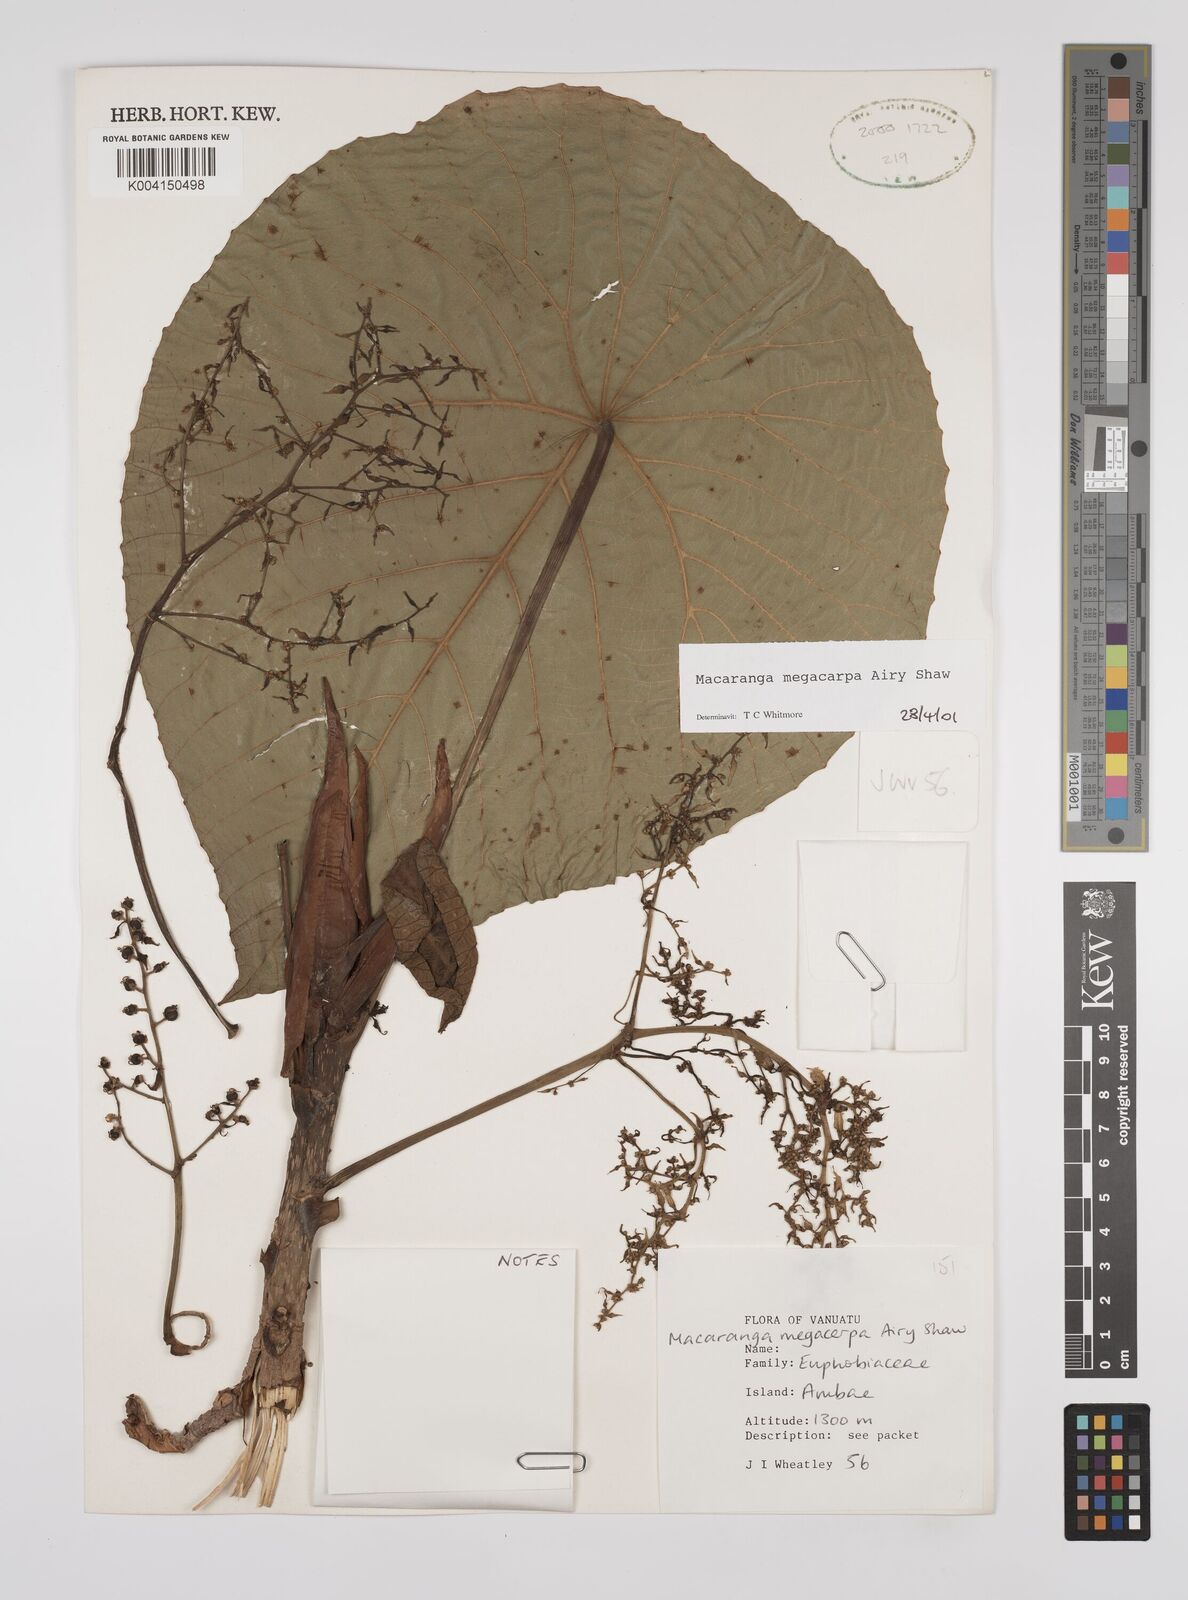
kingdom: Plantae
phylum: Tracheophyta
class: Magnoliopsida
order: Malpighiales
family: Euphorbiaceae
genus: Macaranga
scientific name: Macaranga megacarpa
